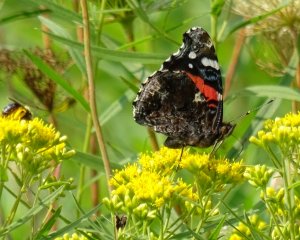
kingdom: Animalia
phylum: Arthropoda
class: Insecta
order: Lepidoptera
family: Nymphalidae
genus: Vanessa
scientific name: Vanessa atalanta
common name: Red Admiral
